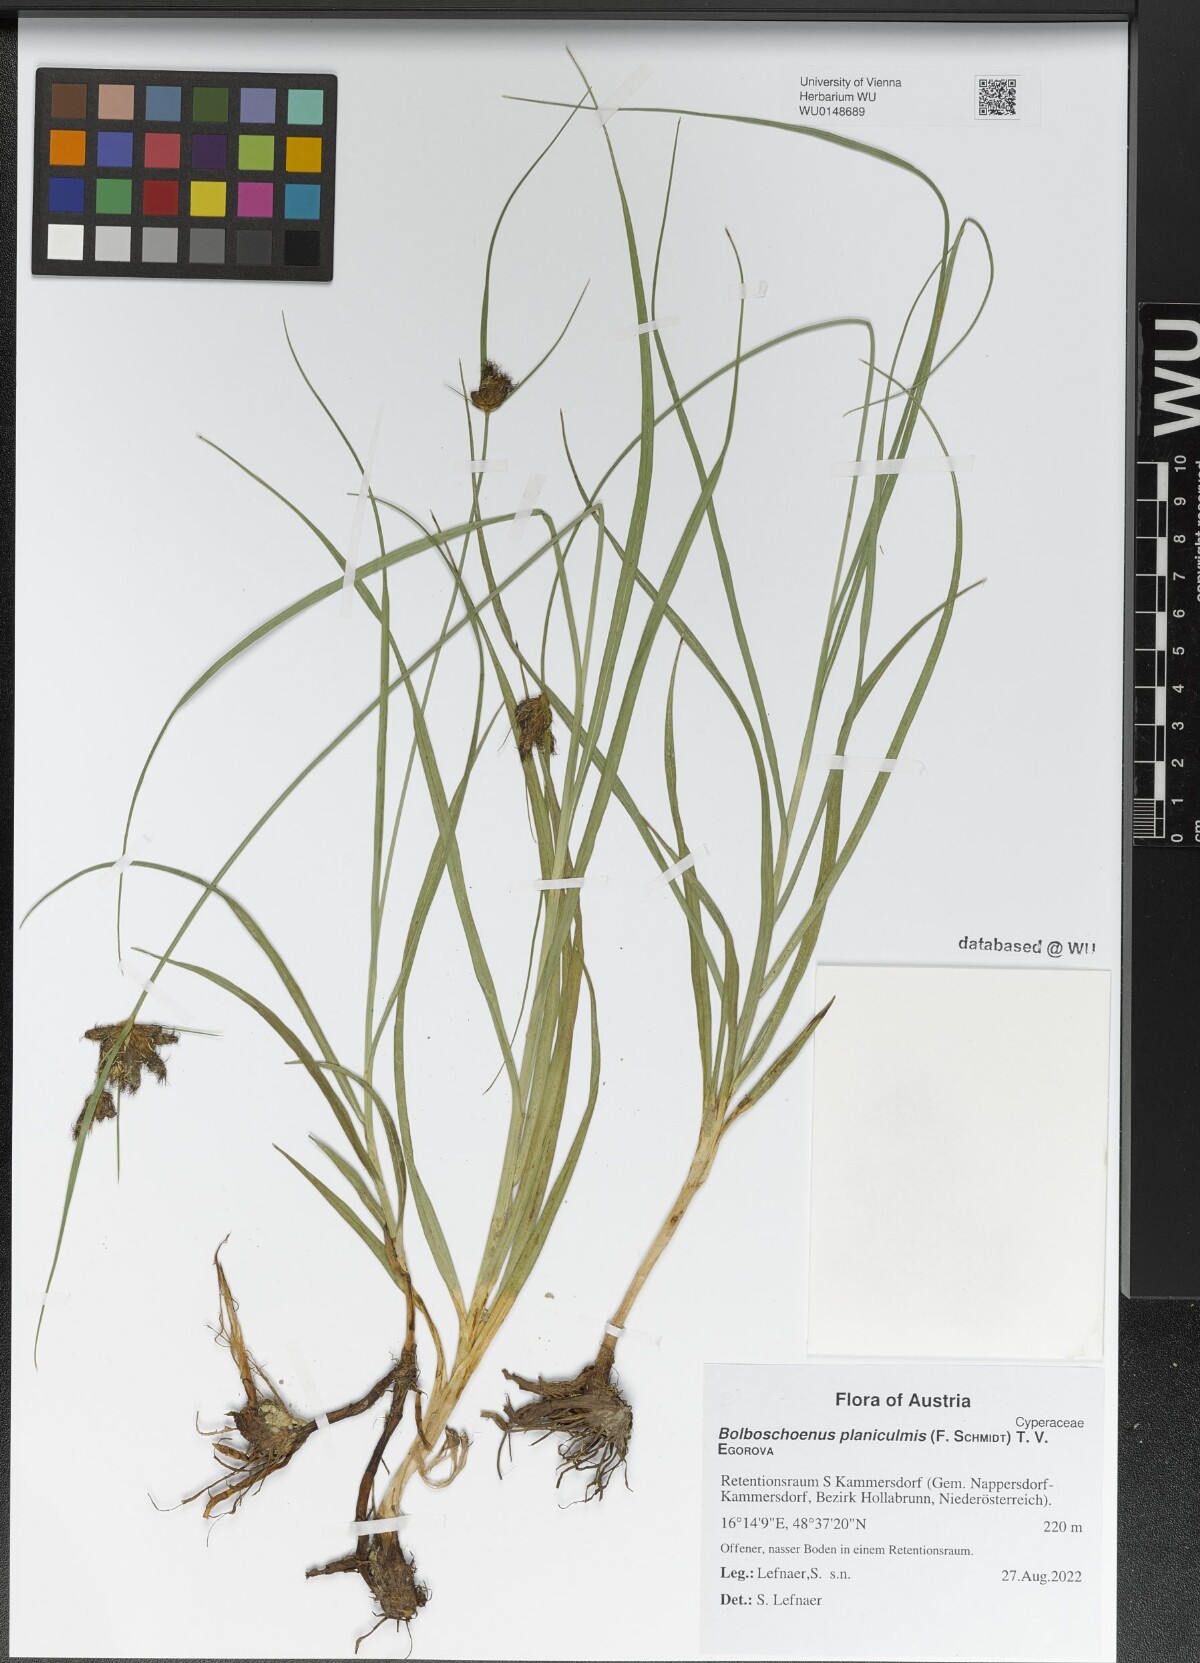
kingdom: Plantae
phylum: Tracheophyta
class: Liliopsida
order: Poales
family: Cyperaceae
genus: Bolboschoenus
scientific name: Bolboschoenus planiculmis
